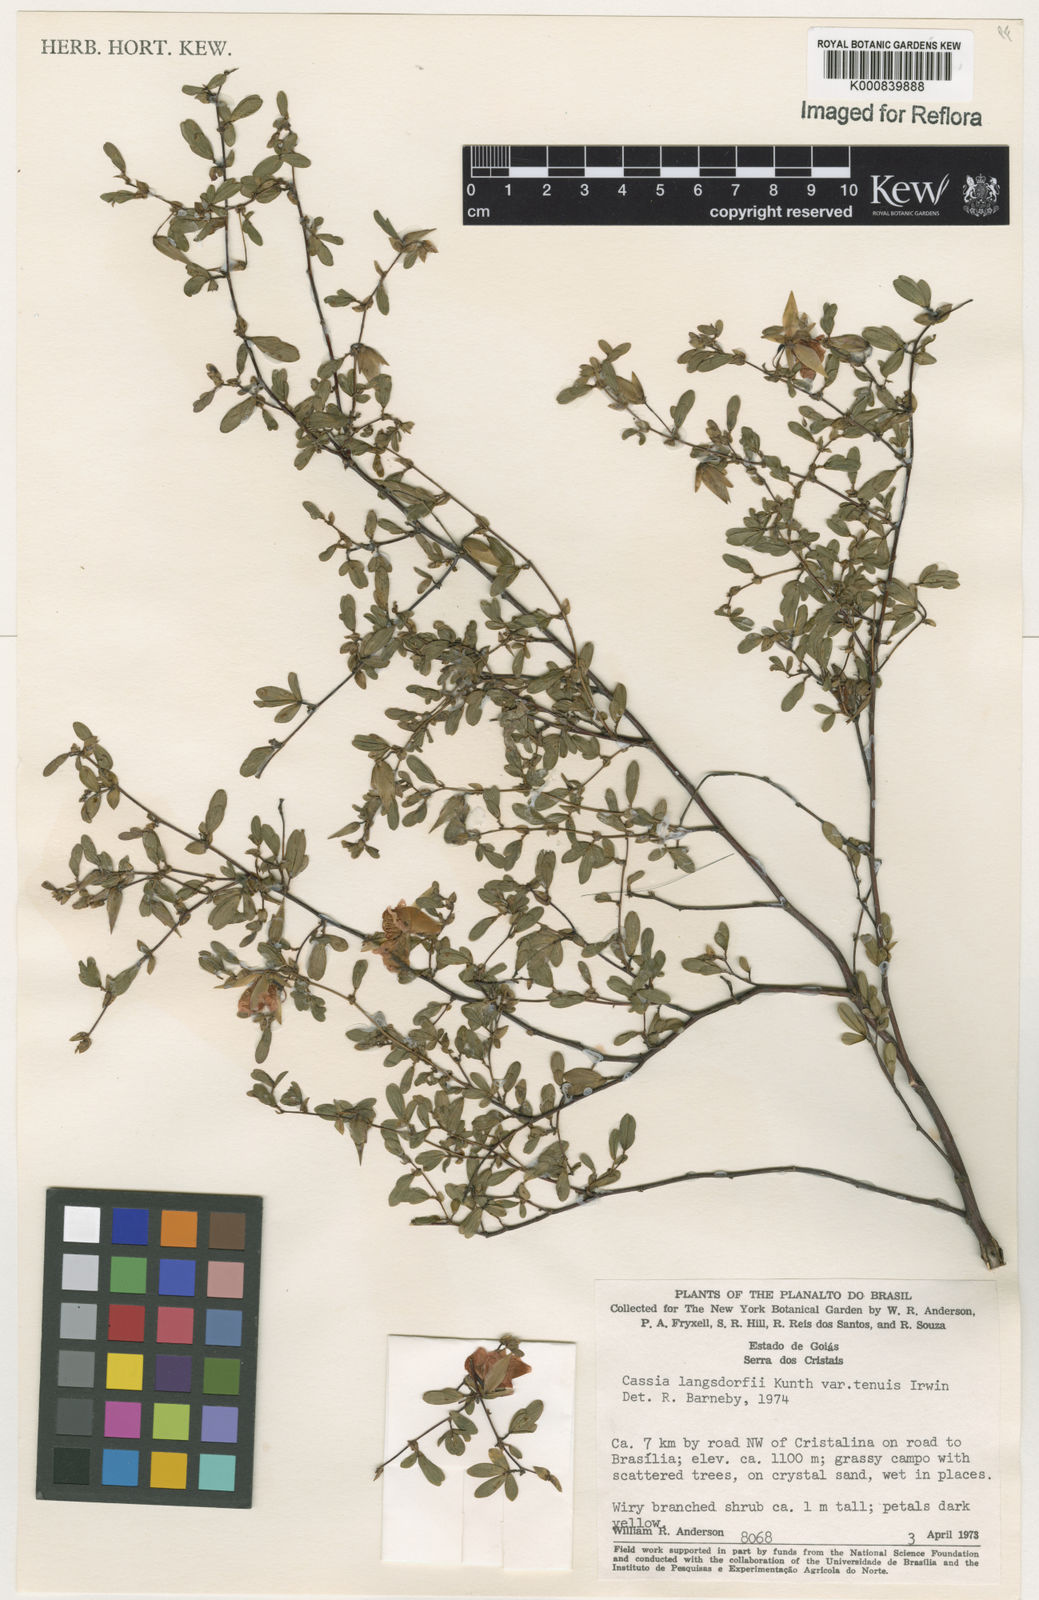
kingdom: Plantae
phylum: Tracheophyta
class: Magnoliopsida
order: Fabales
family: Fabaceae
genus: Chamaecrista
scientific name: Chamaecrista ramosa
